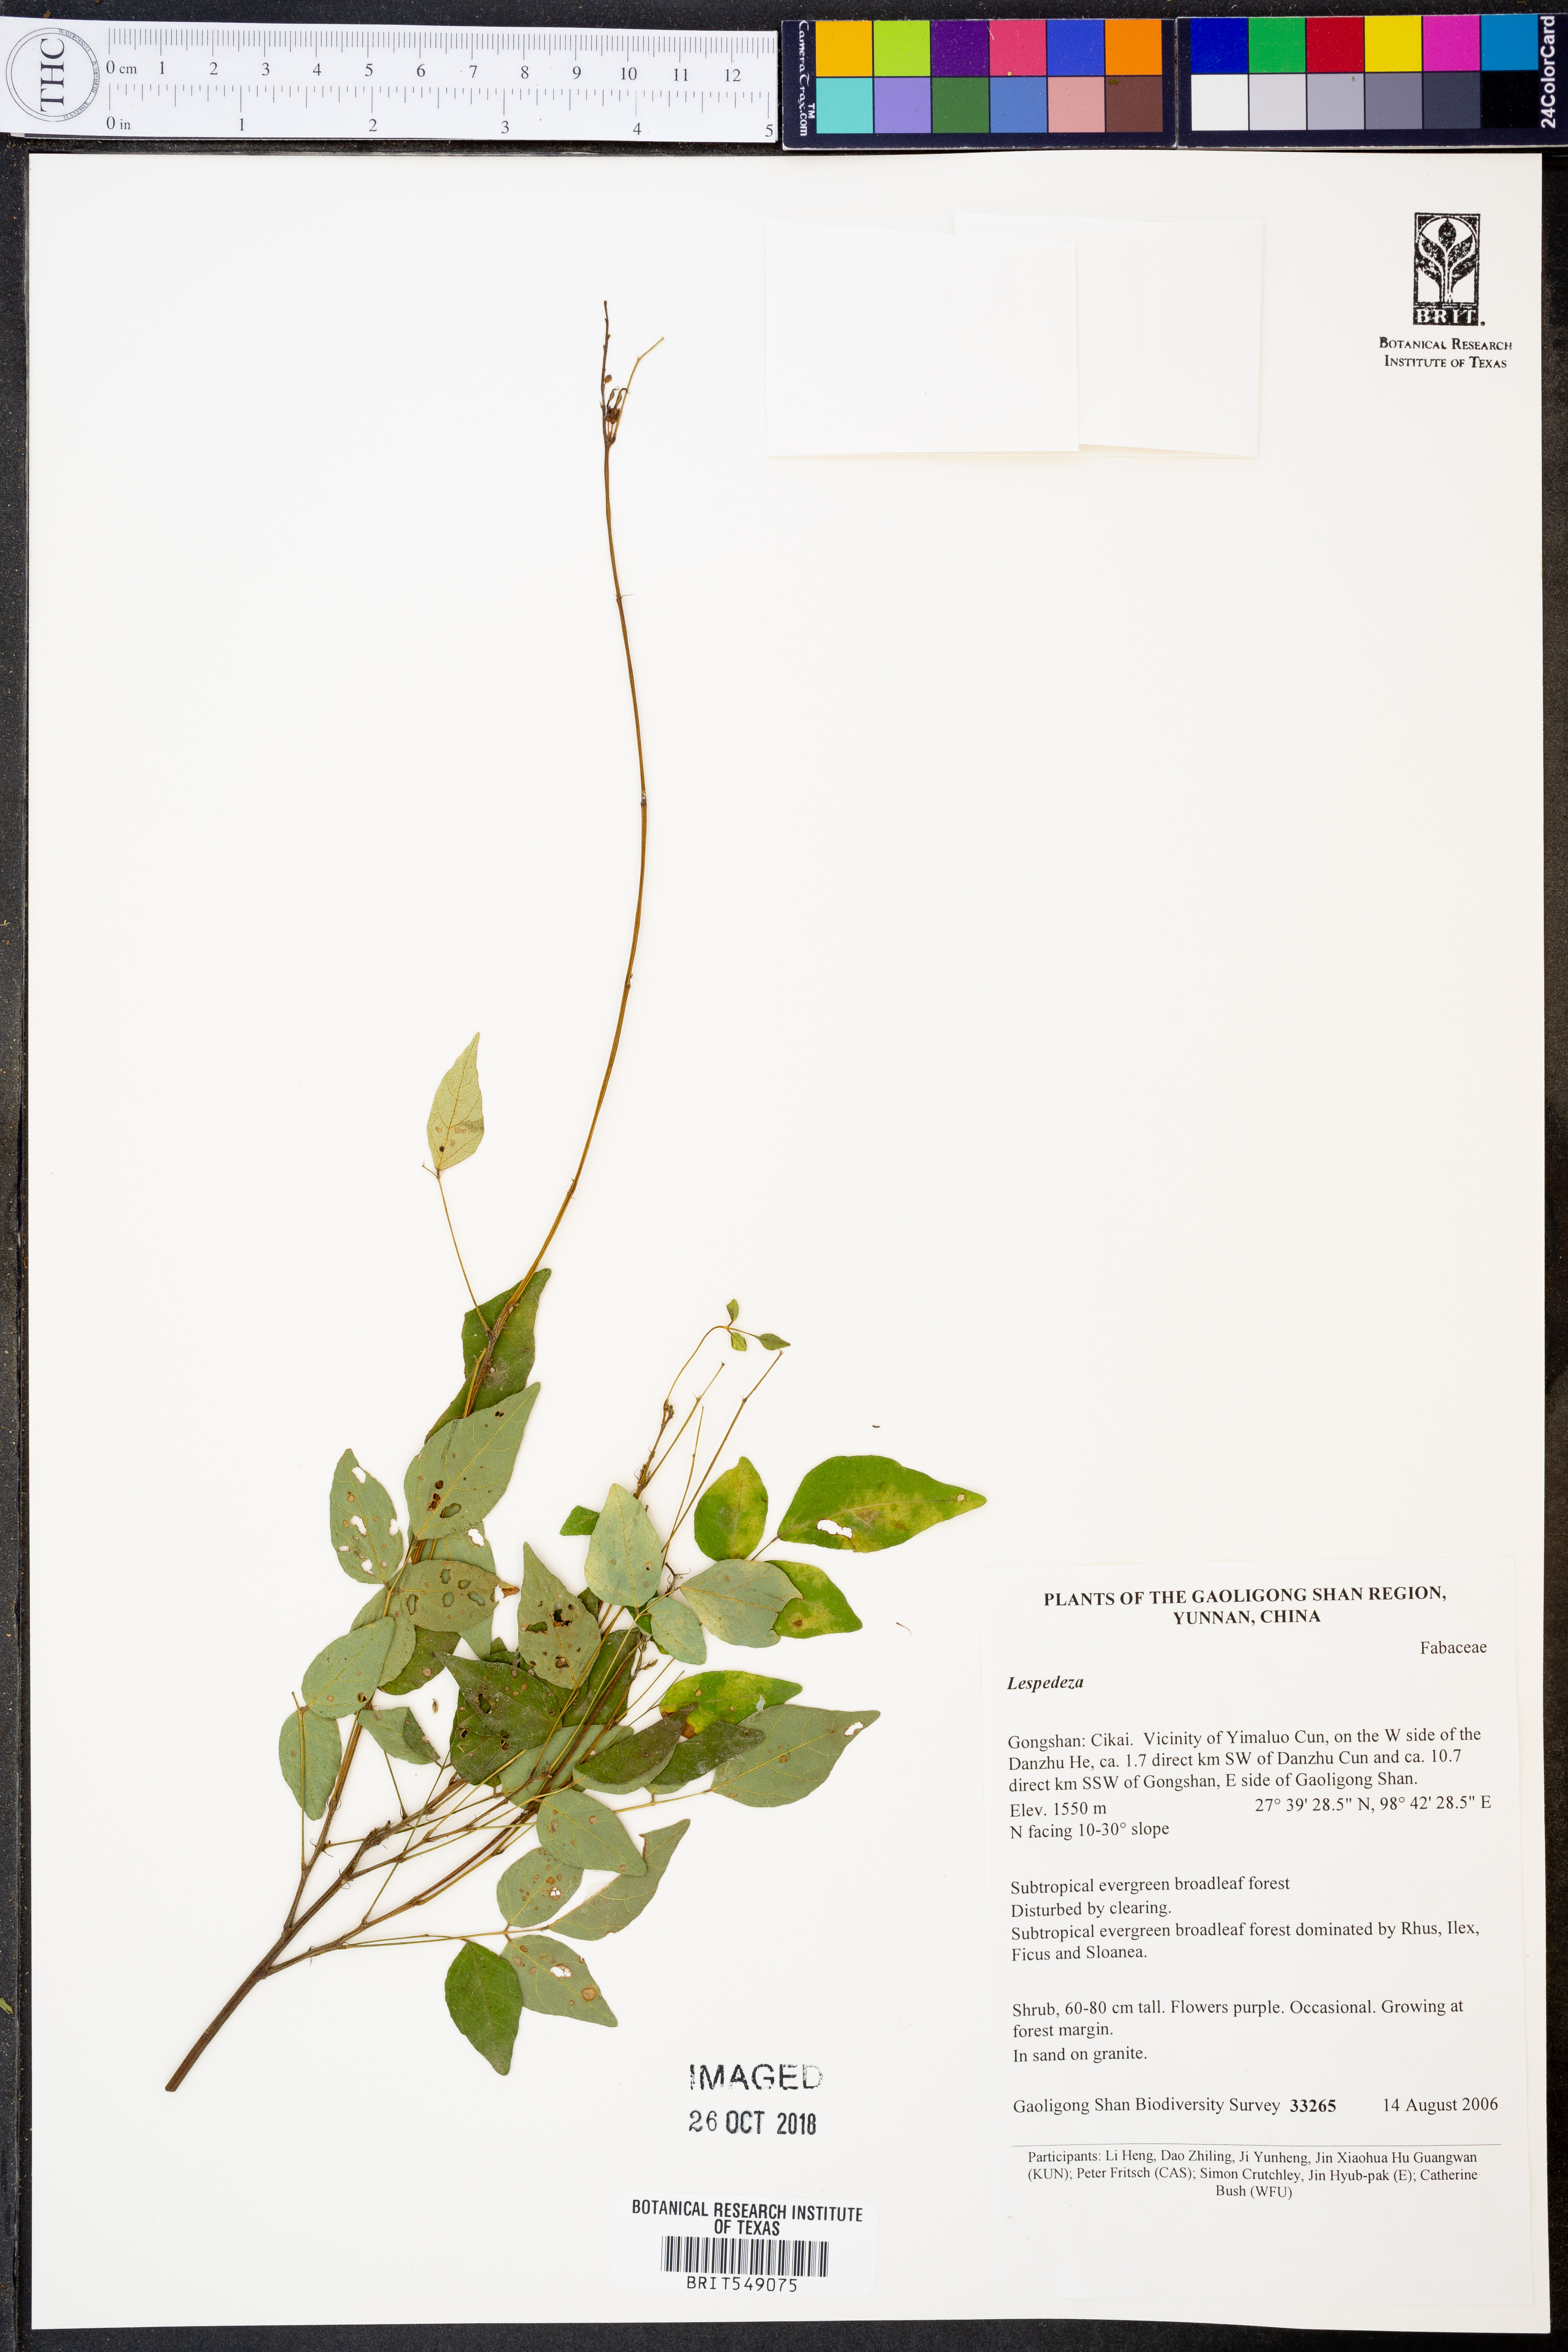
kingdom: Plantae
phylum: Tracheophyta
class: Magnoliopsida
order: Fabales
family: Fabaceae
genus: Lespedeza
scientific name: Lespedeza
